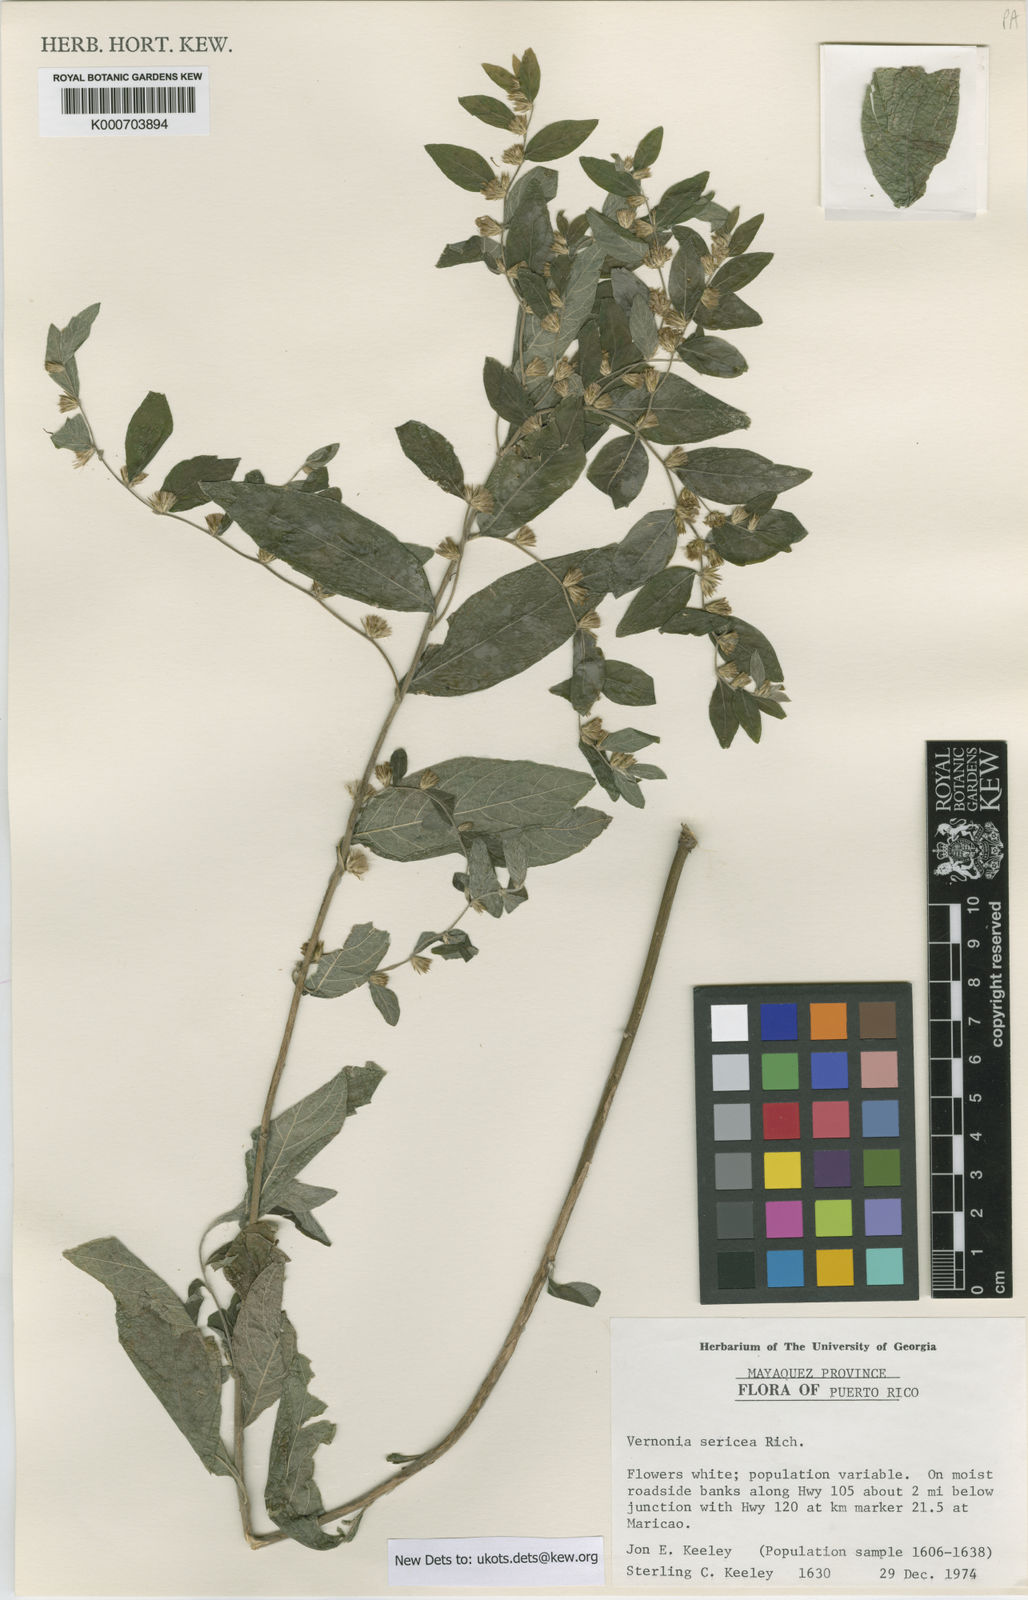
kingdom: Plantae
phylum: Tracheophyta
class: Magnoliopsida
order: Asterales
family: Asteraceae
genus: Lepidaploa
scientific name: Lepidaploa sericea
